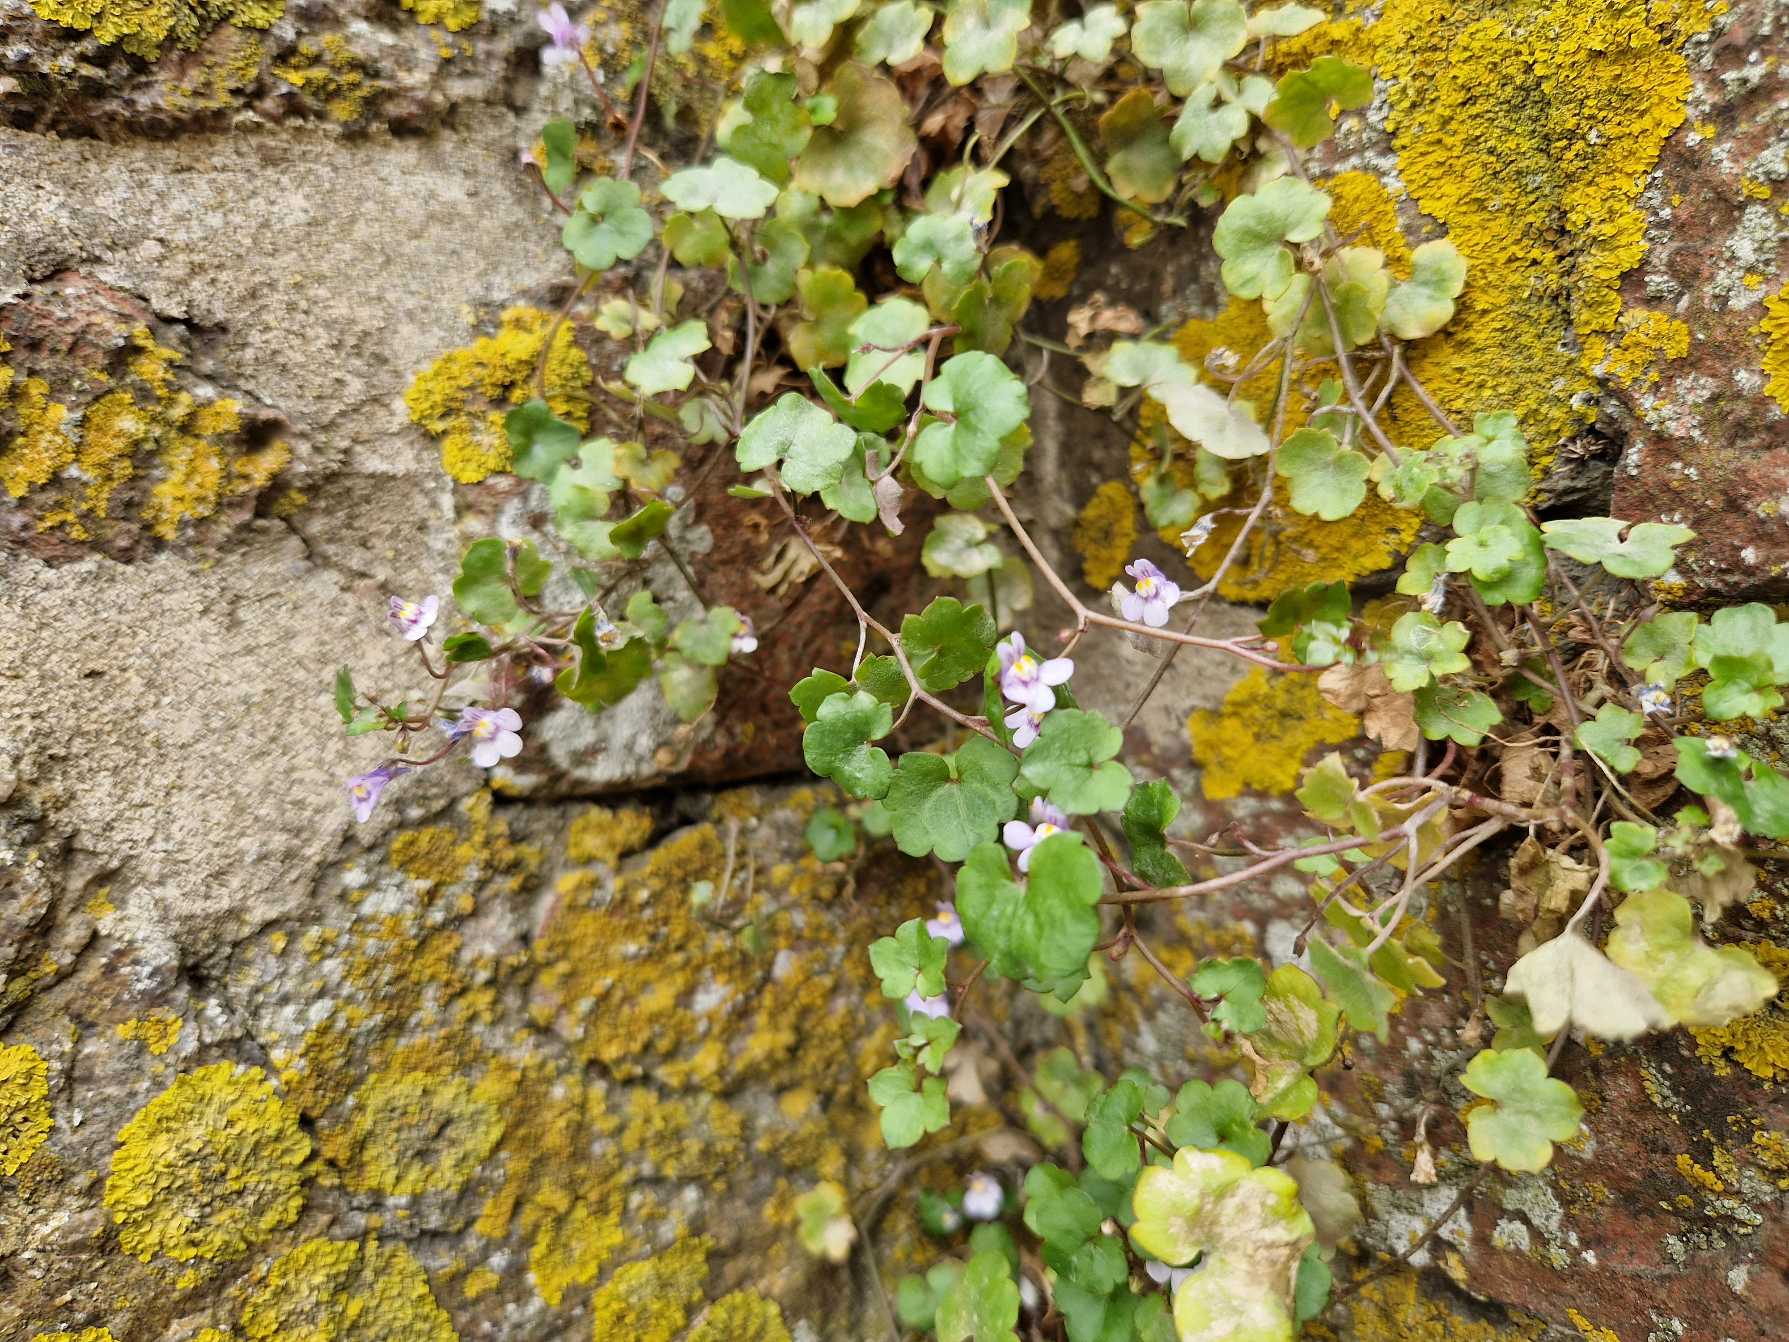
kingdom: Plantae
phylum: Tracheophyta
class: Magnoliopsida
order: Lamiales
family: Plantaginaceae
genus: Cymbalaria
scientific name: Cymbalaria muralis
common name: Vedbend-torskemund
